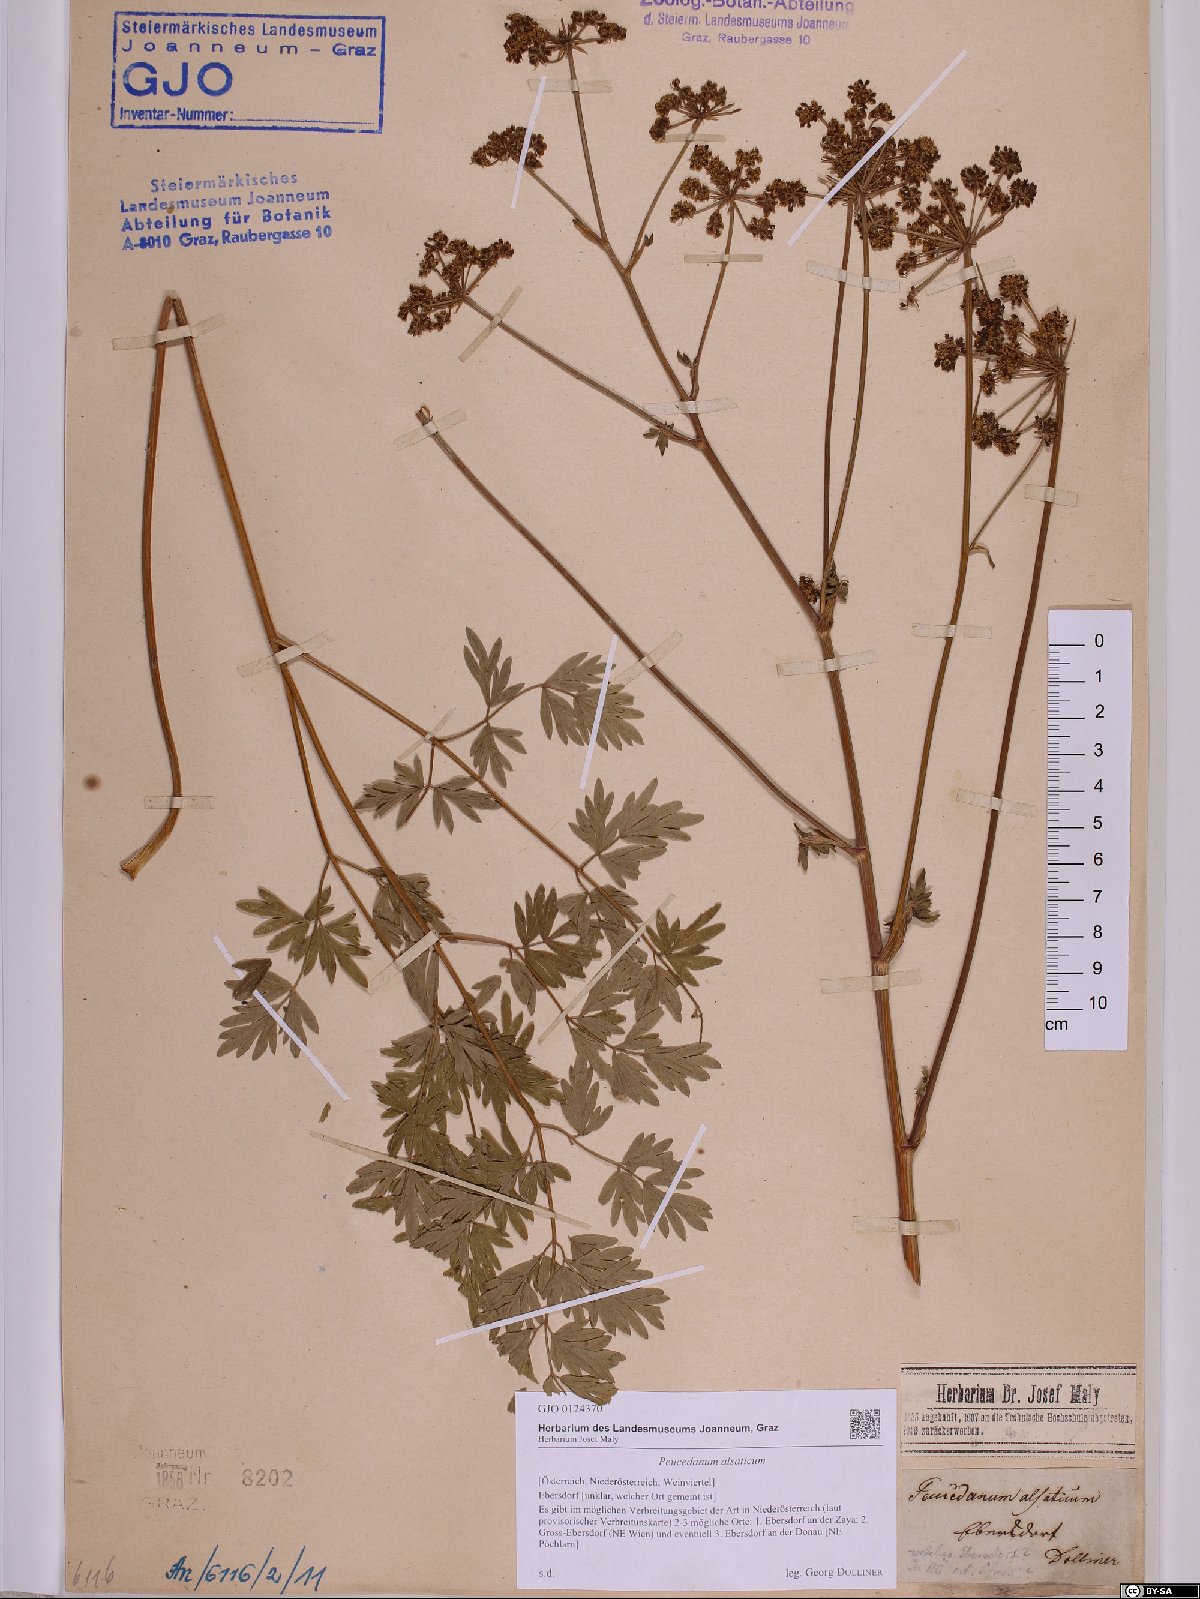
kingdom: Plantae
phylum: Tracheophyta
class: Magnoliopsida
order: Apiales
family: Apiaceae
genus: Xanthoselinum
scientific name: Xanthoselinum alsaticum
